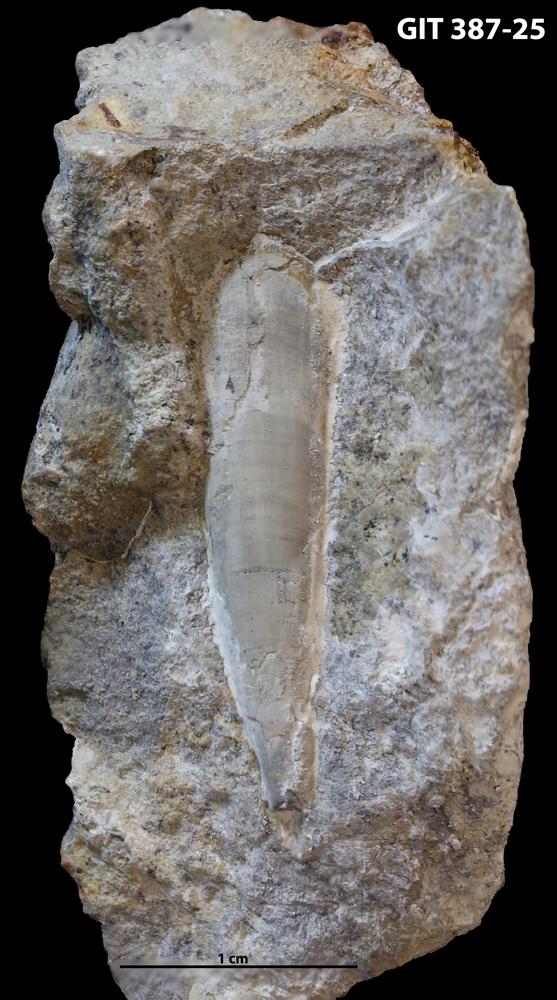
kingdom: Animalia
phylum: Annelida
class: Polychaeta
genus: Hyolithes
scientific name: Hyolithes
